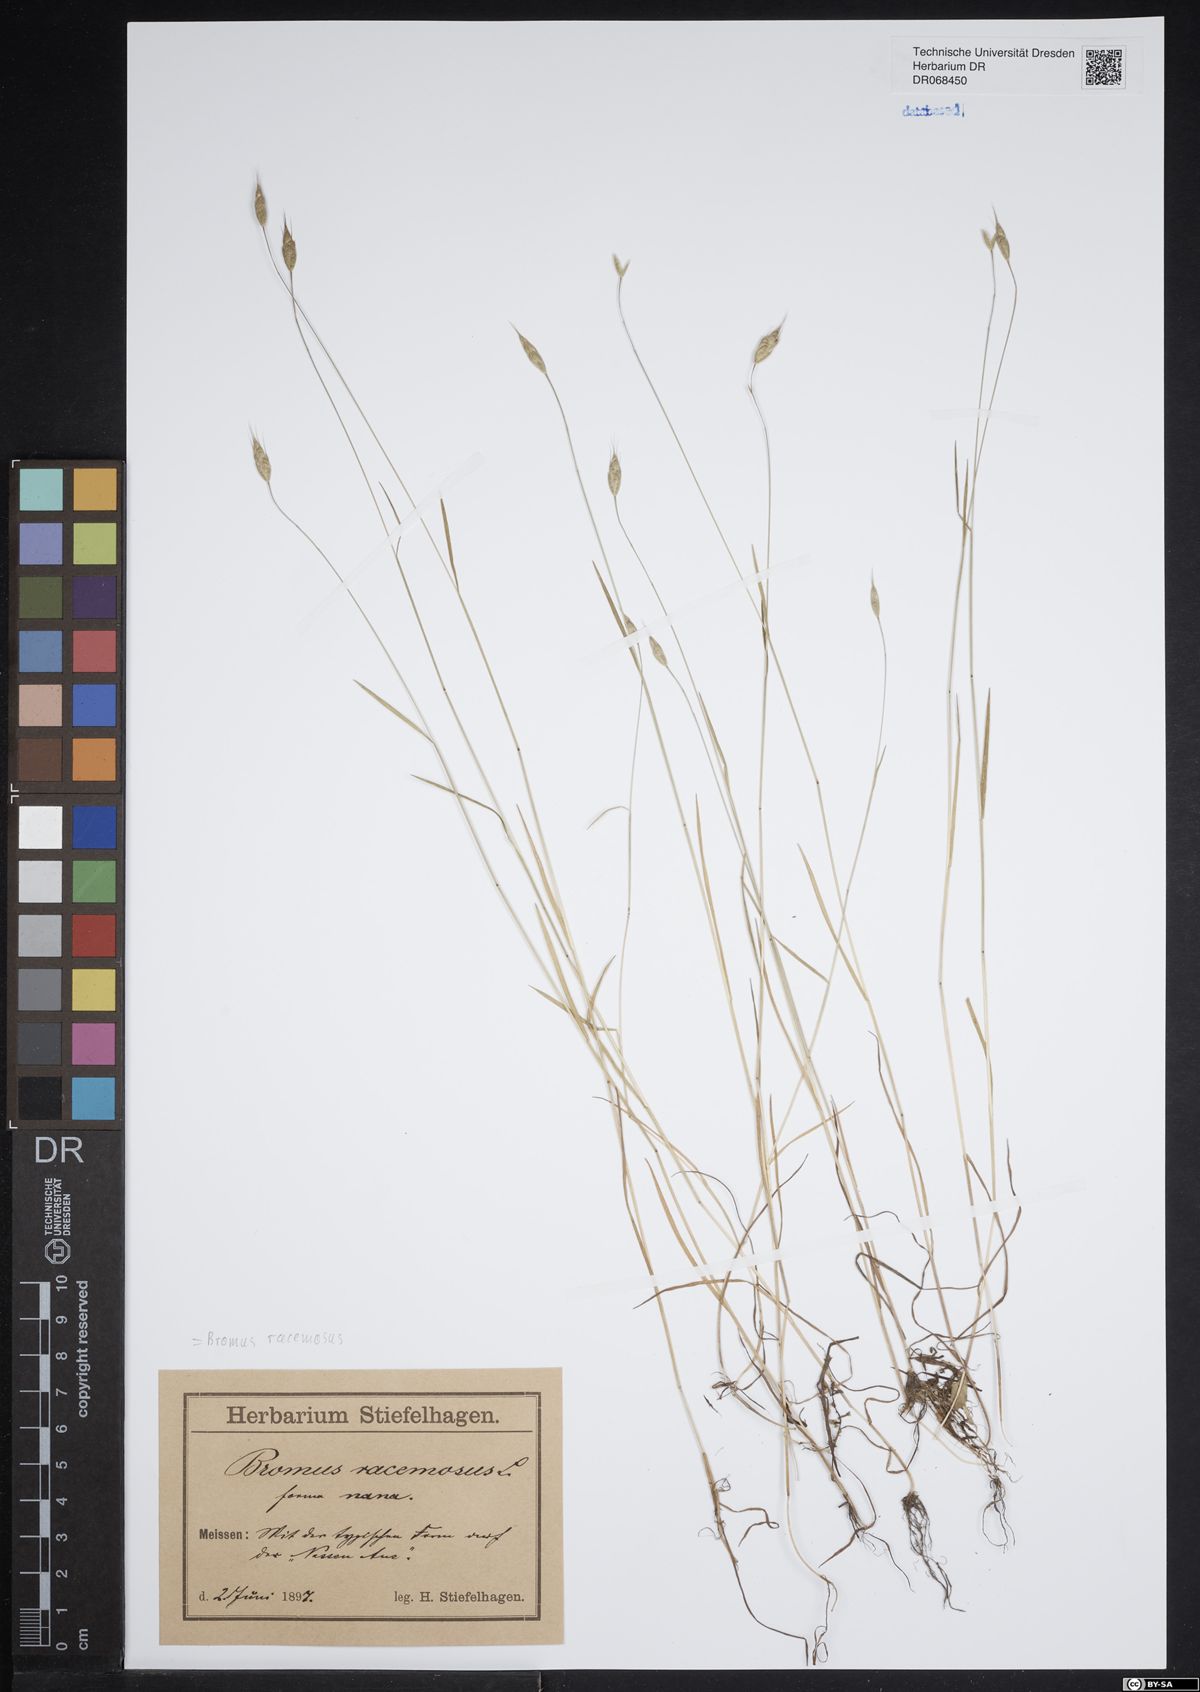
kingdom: Plantae
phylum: Tracheophyta
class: Liliopsida
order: Poales
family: Poaceae
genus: Bromus
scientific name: Bromus racemosus
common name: Bald brome
